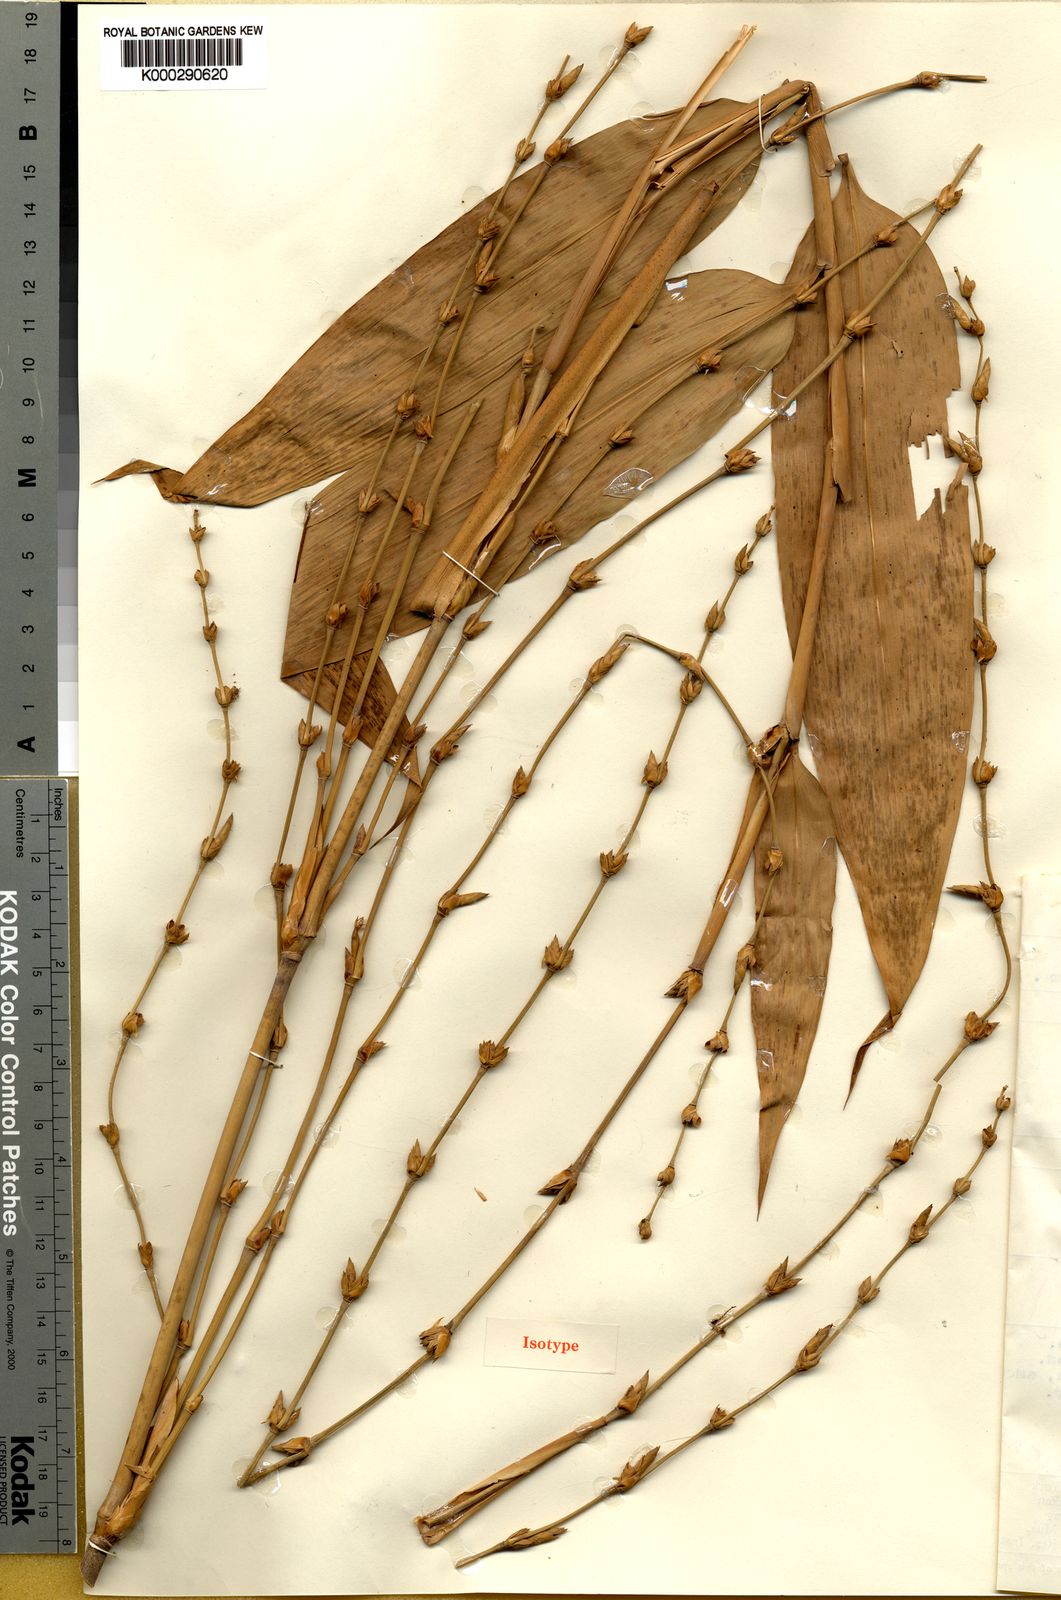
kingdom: Plantae
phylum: Tracheophyta
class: Liliopsida
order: Poales
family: Poaceae
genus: Gigantochloa
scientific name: Gigantochloa achmadii
